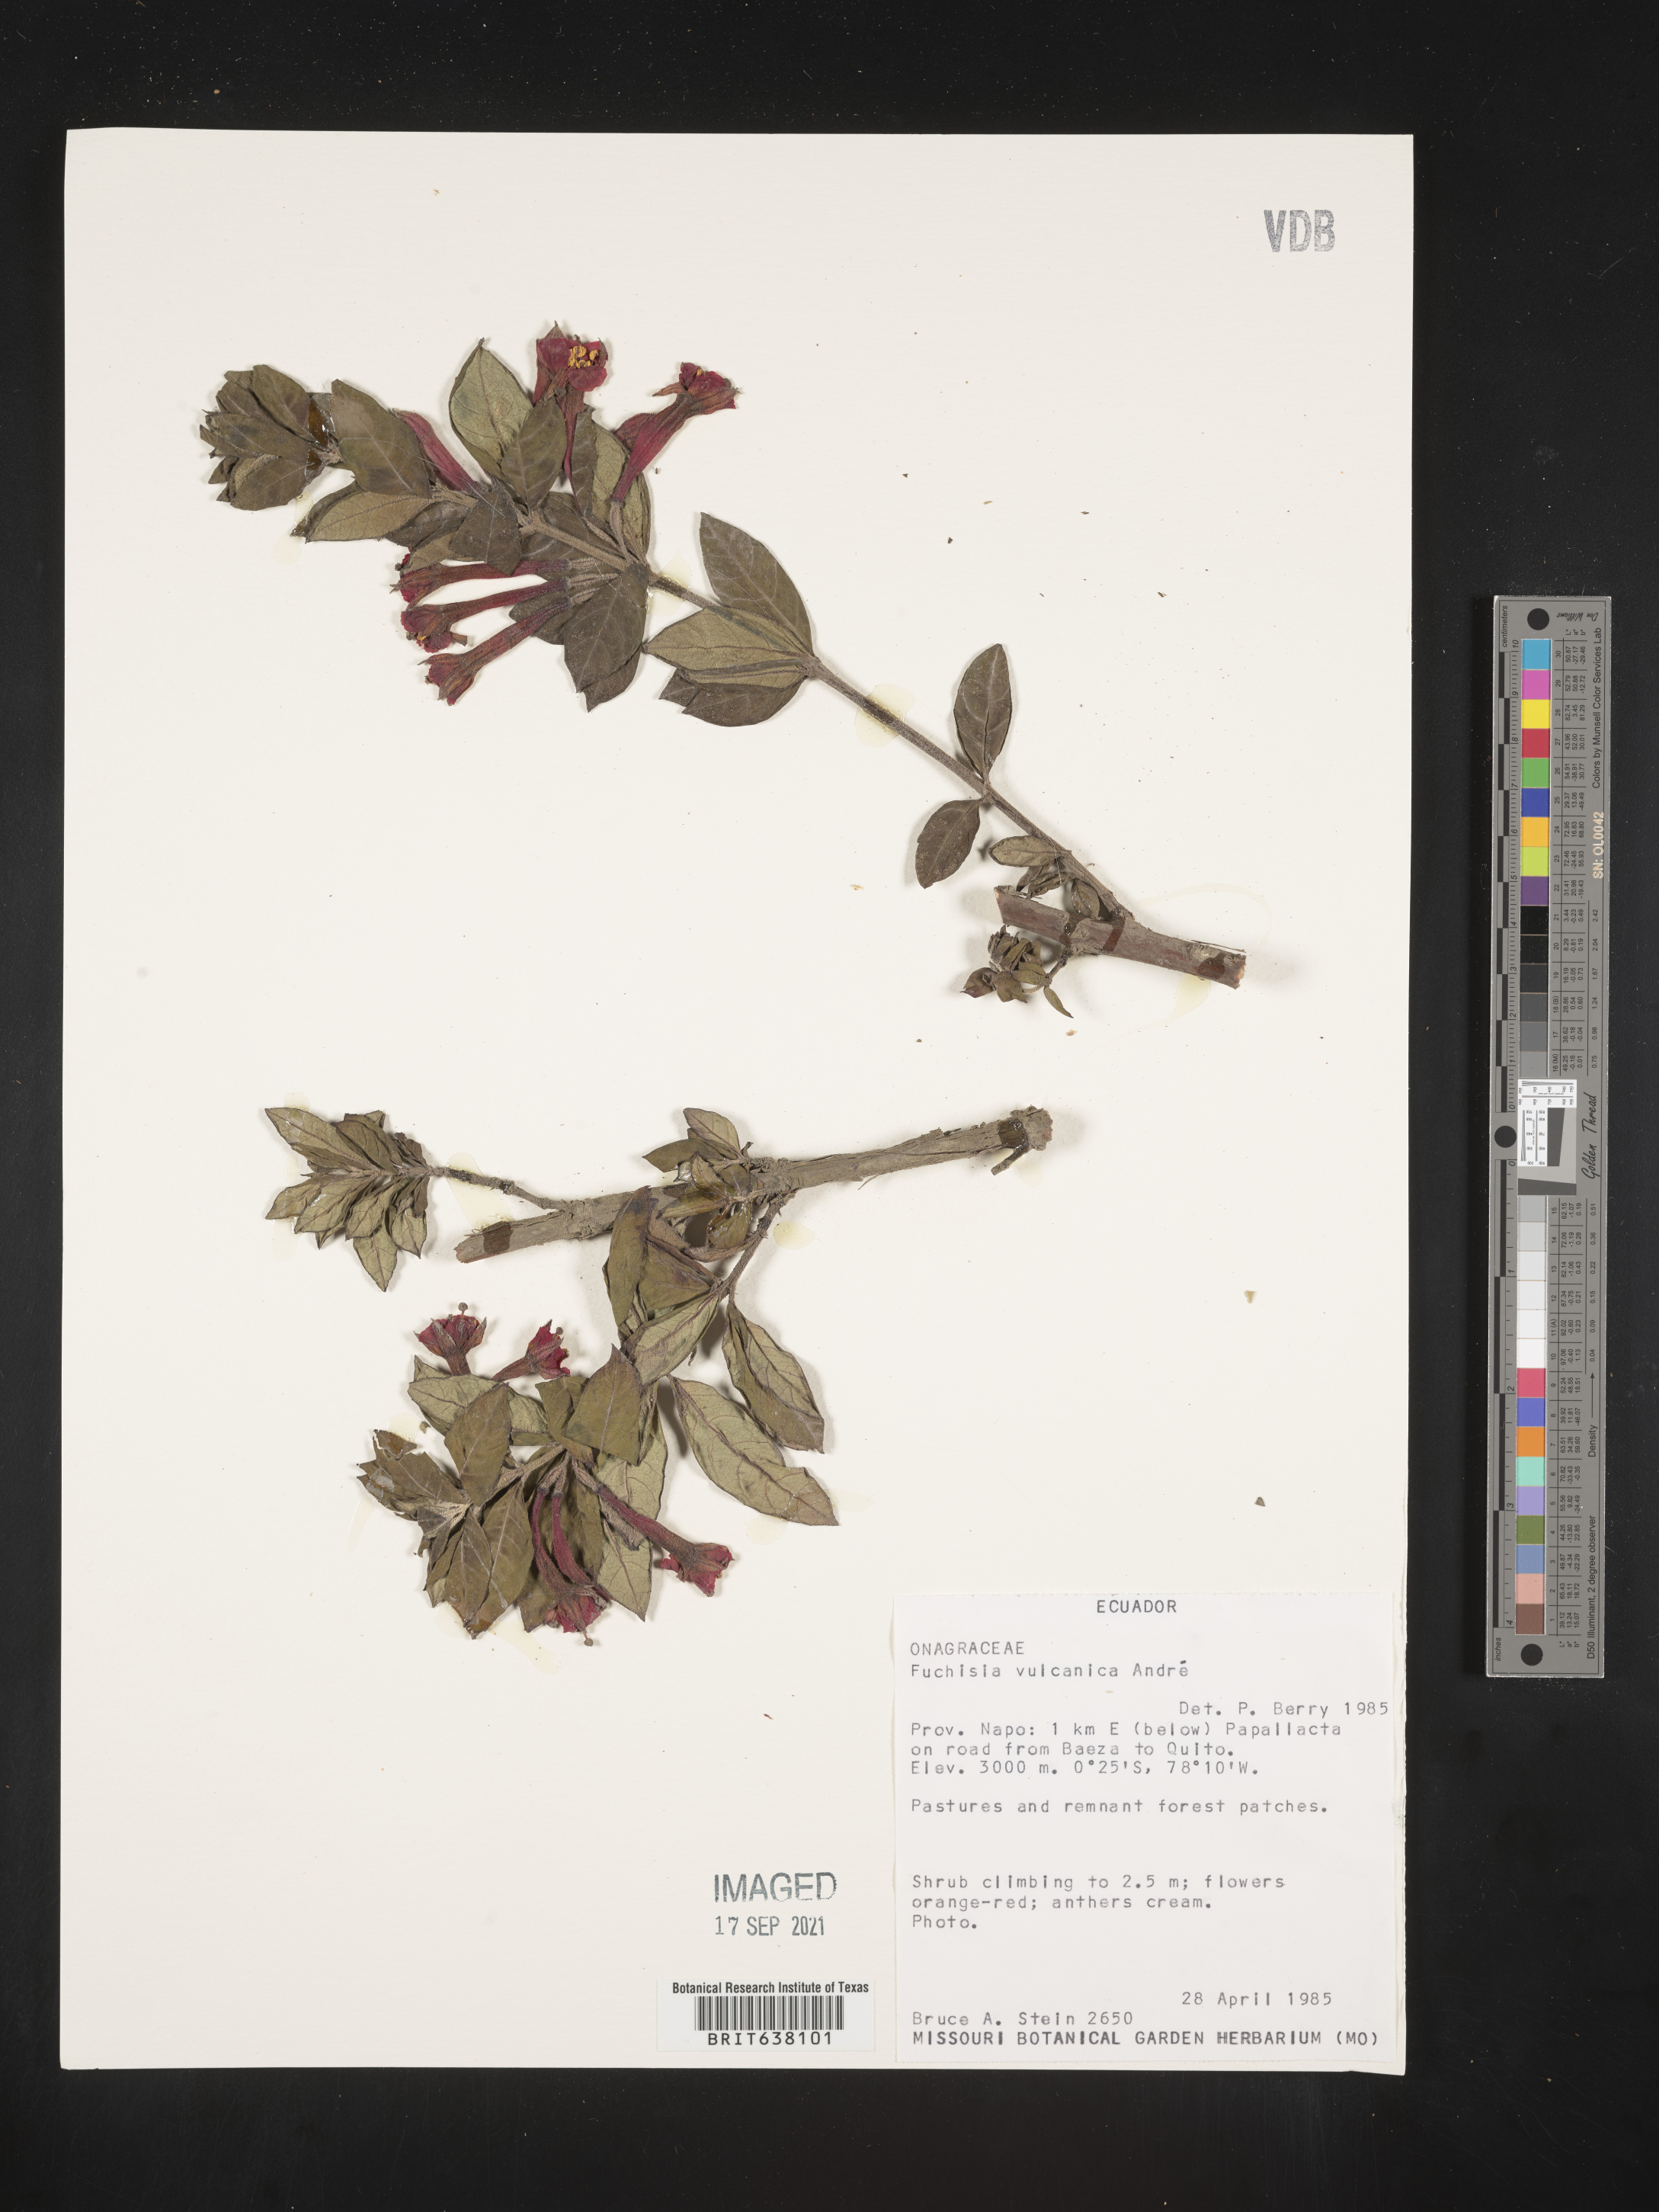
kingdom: Plantae
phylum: Tracheophyta
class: Magnoliopsida
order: Myrtales
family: Onagraceae
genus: Fuchsia
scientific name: Fuchsia
